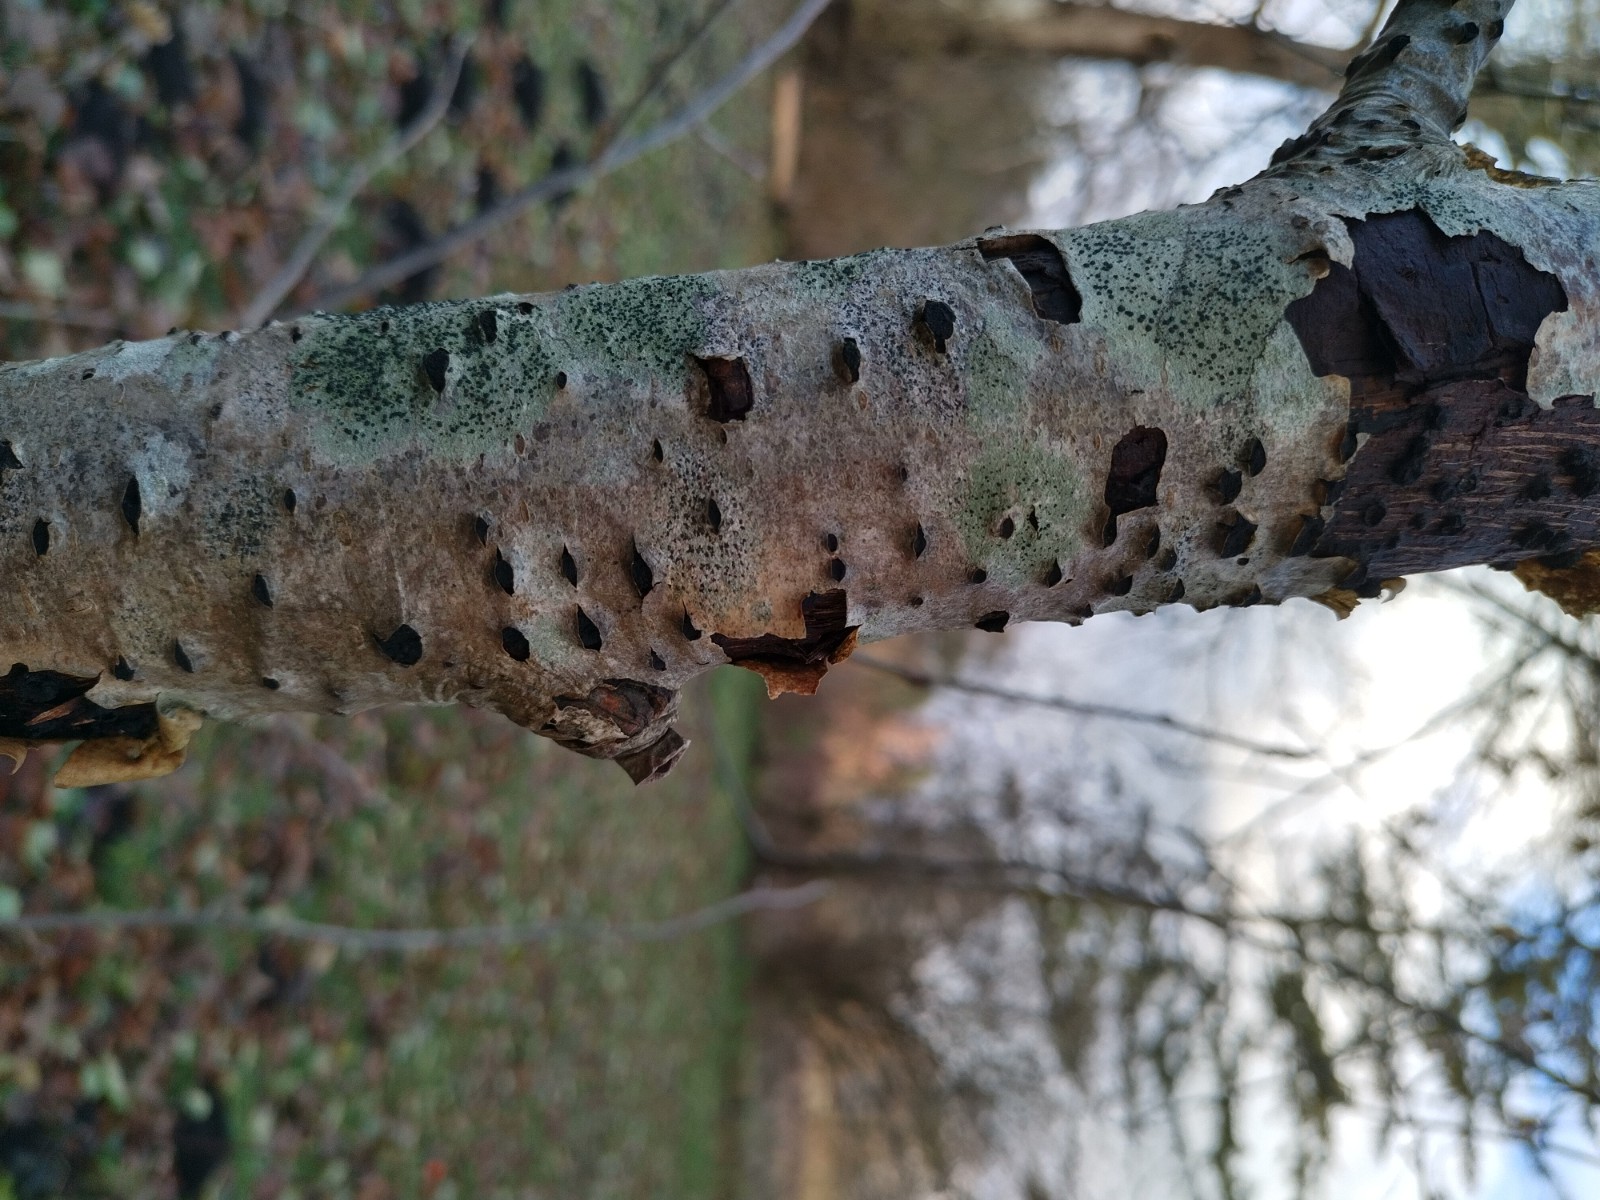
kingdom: Fungi
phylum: Ascomycota
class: Lecanoromycetes
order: Lecanorales
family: Lecanoraceae
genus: Lecidella
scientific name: Lecidella elaeochroma
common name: grågrøn skivelav
